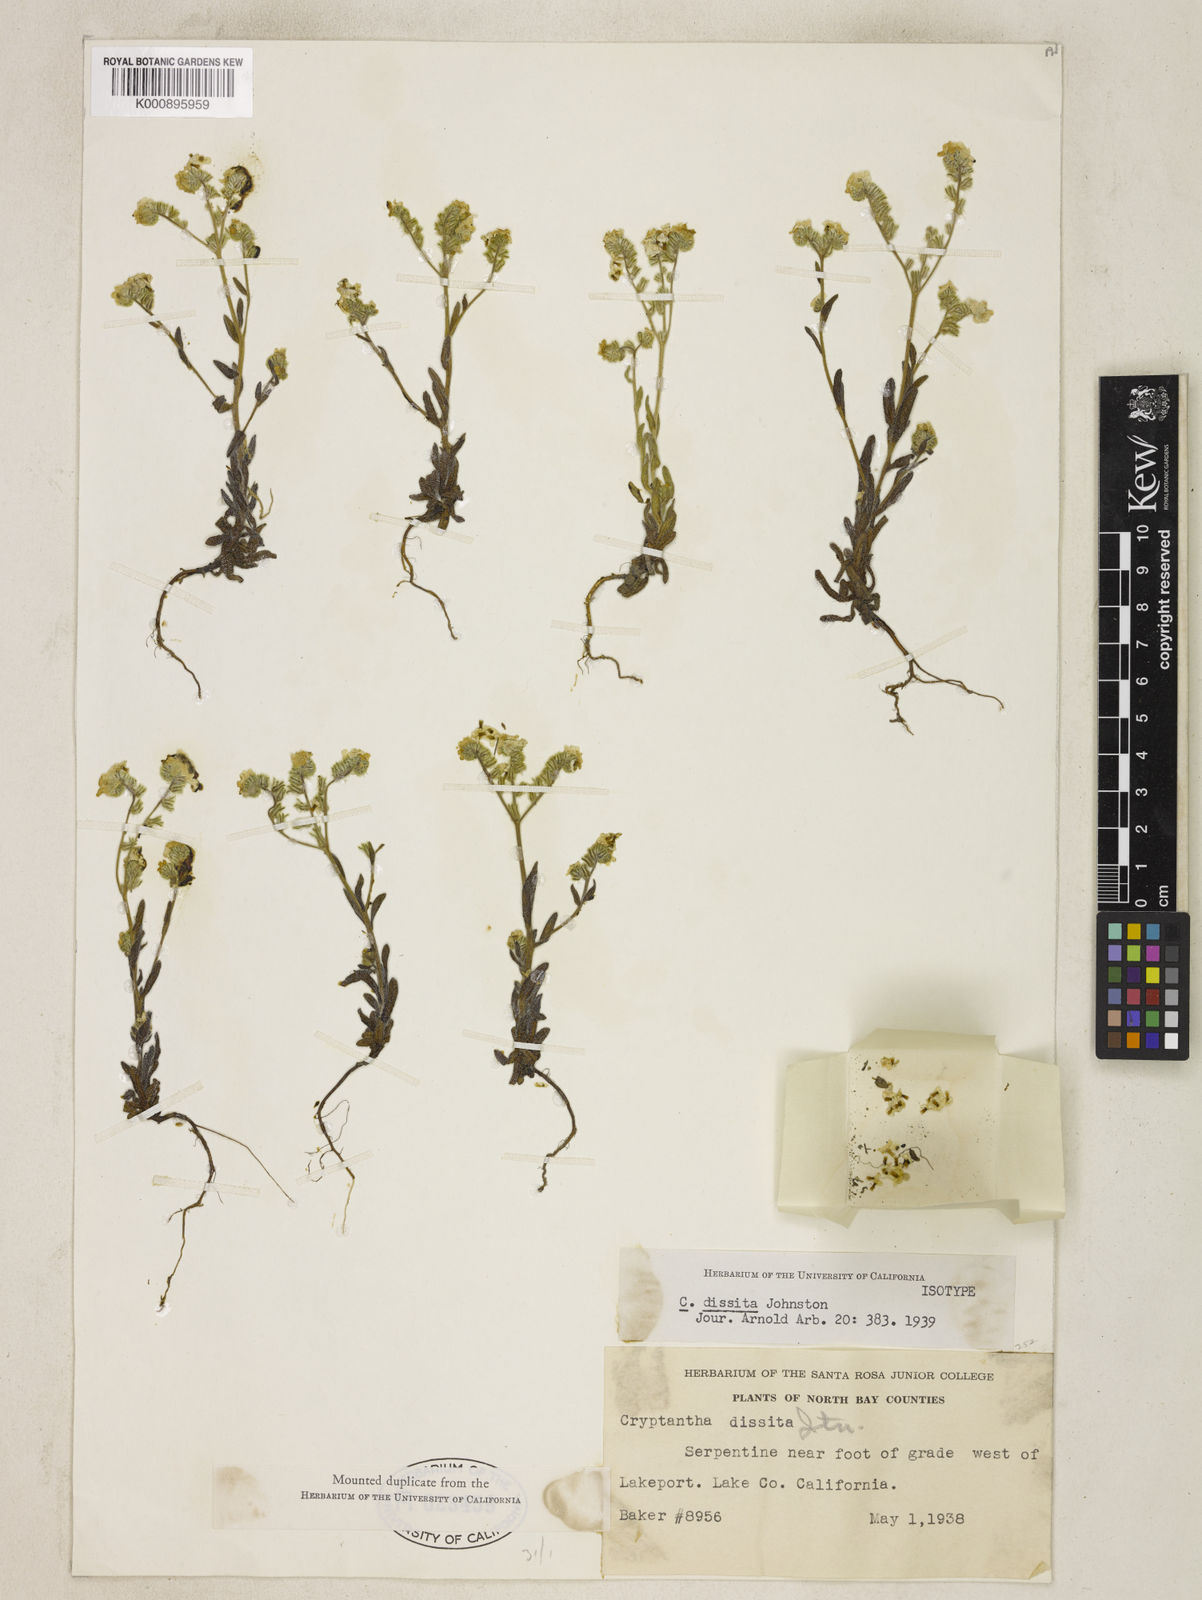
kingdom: Plantae
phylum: Tracheophyta
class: Magnoliopsida
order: Boraginales
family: Boraginaceae
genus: Cryptantha
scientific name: Cryptantha dissita
